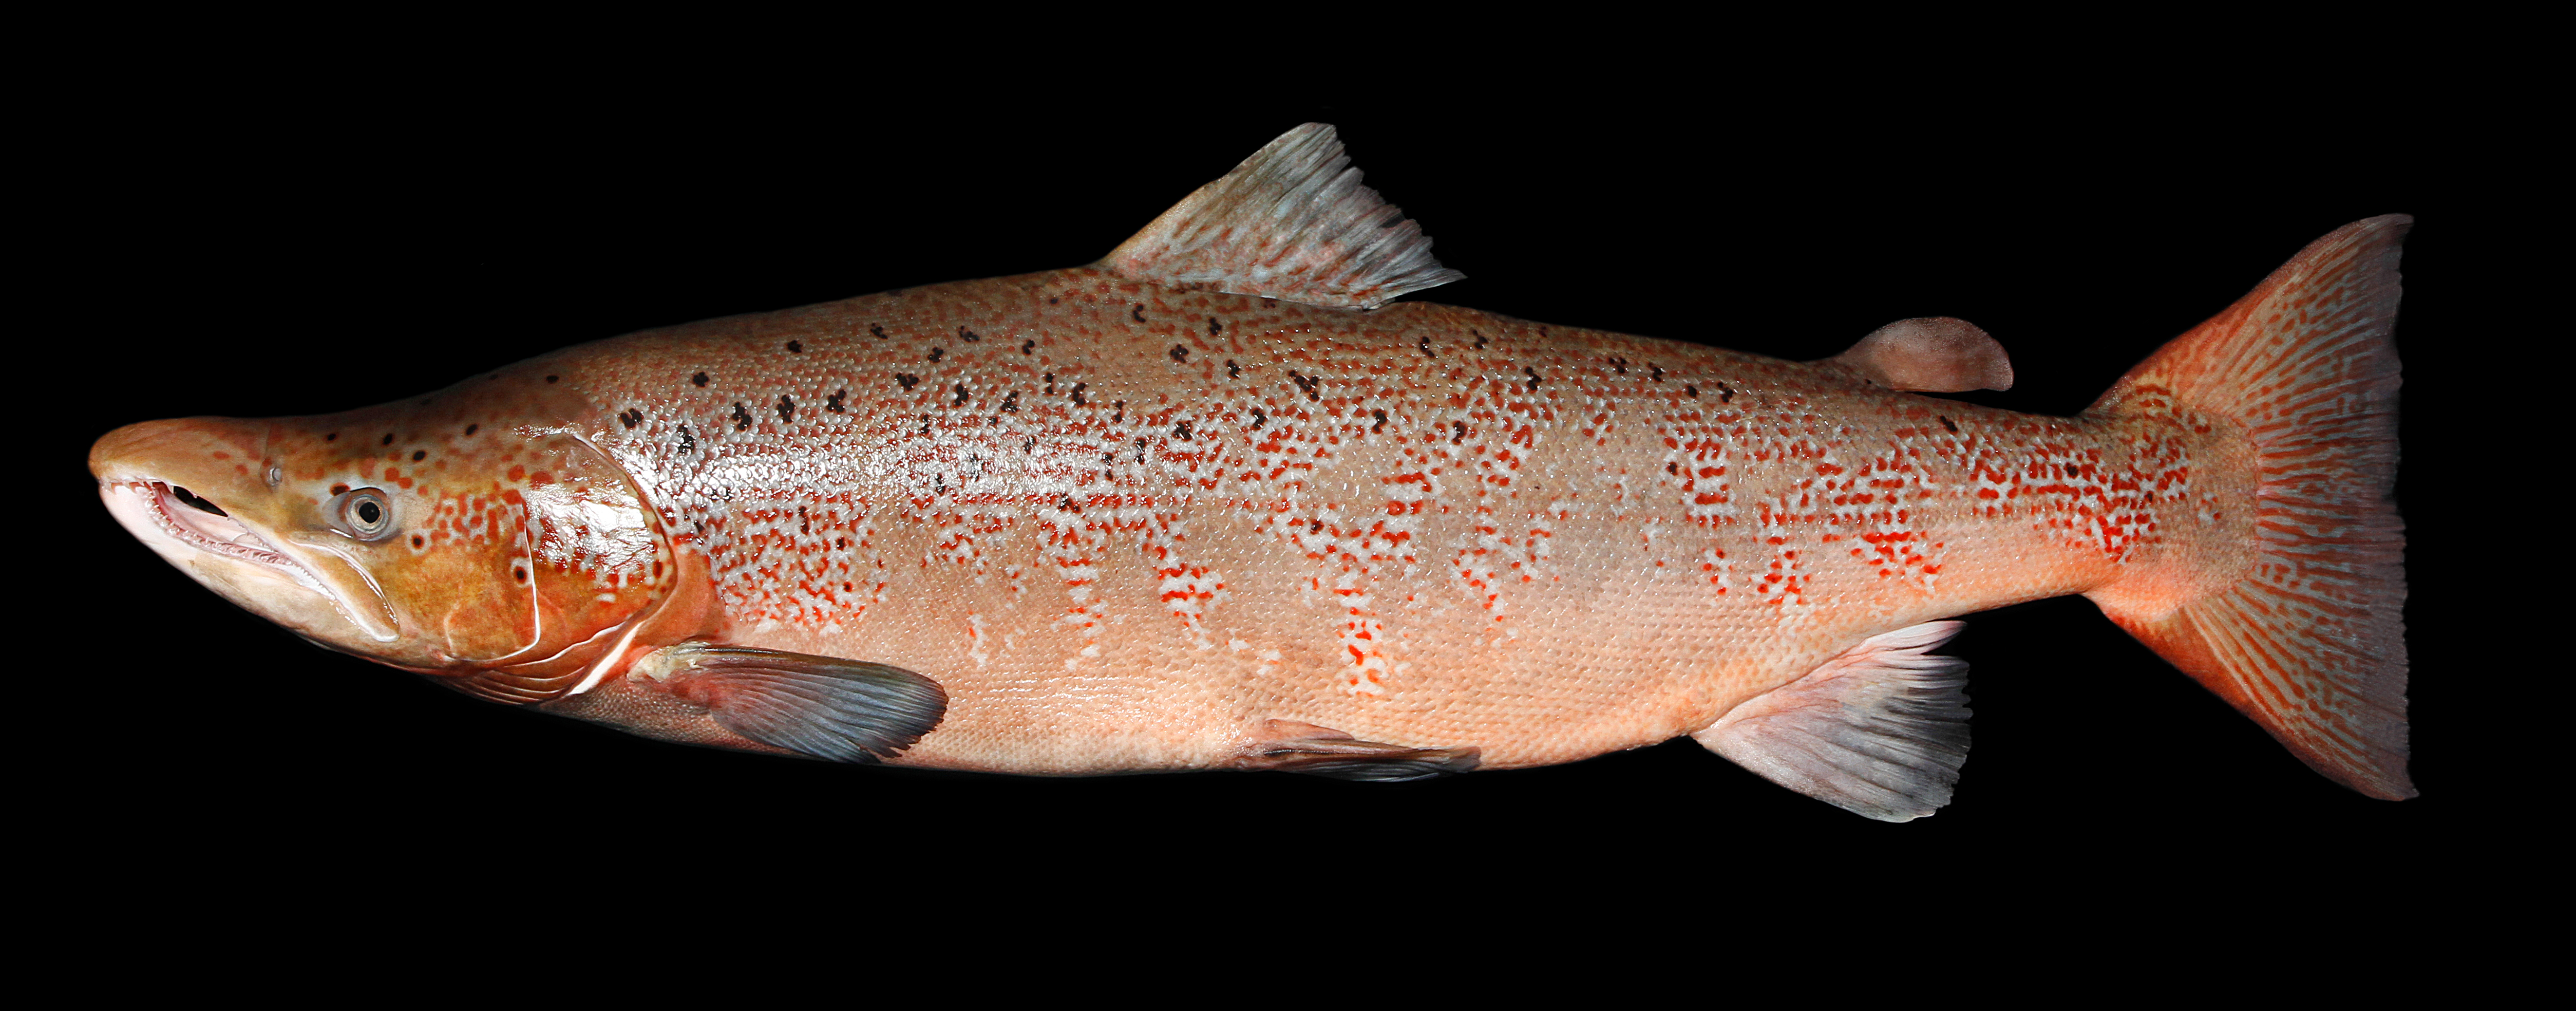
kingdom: Animalia
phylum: Chordata
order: Salmoniformes
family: Salmonidae
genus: Salmo
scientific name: Salmo salar
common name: Atlantic salmon
